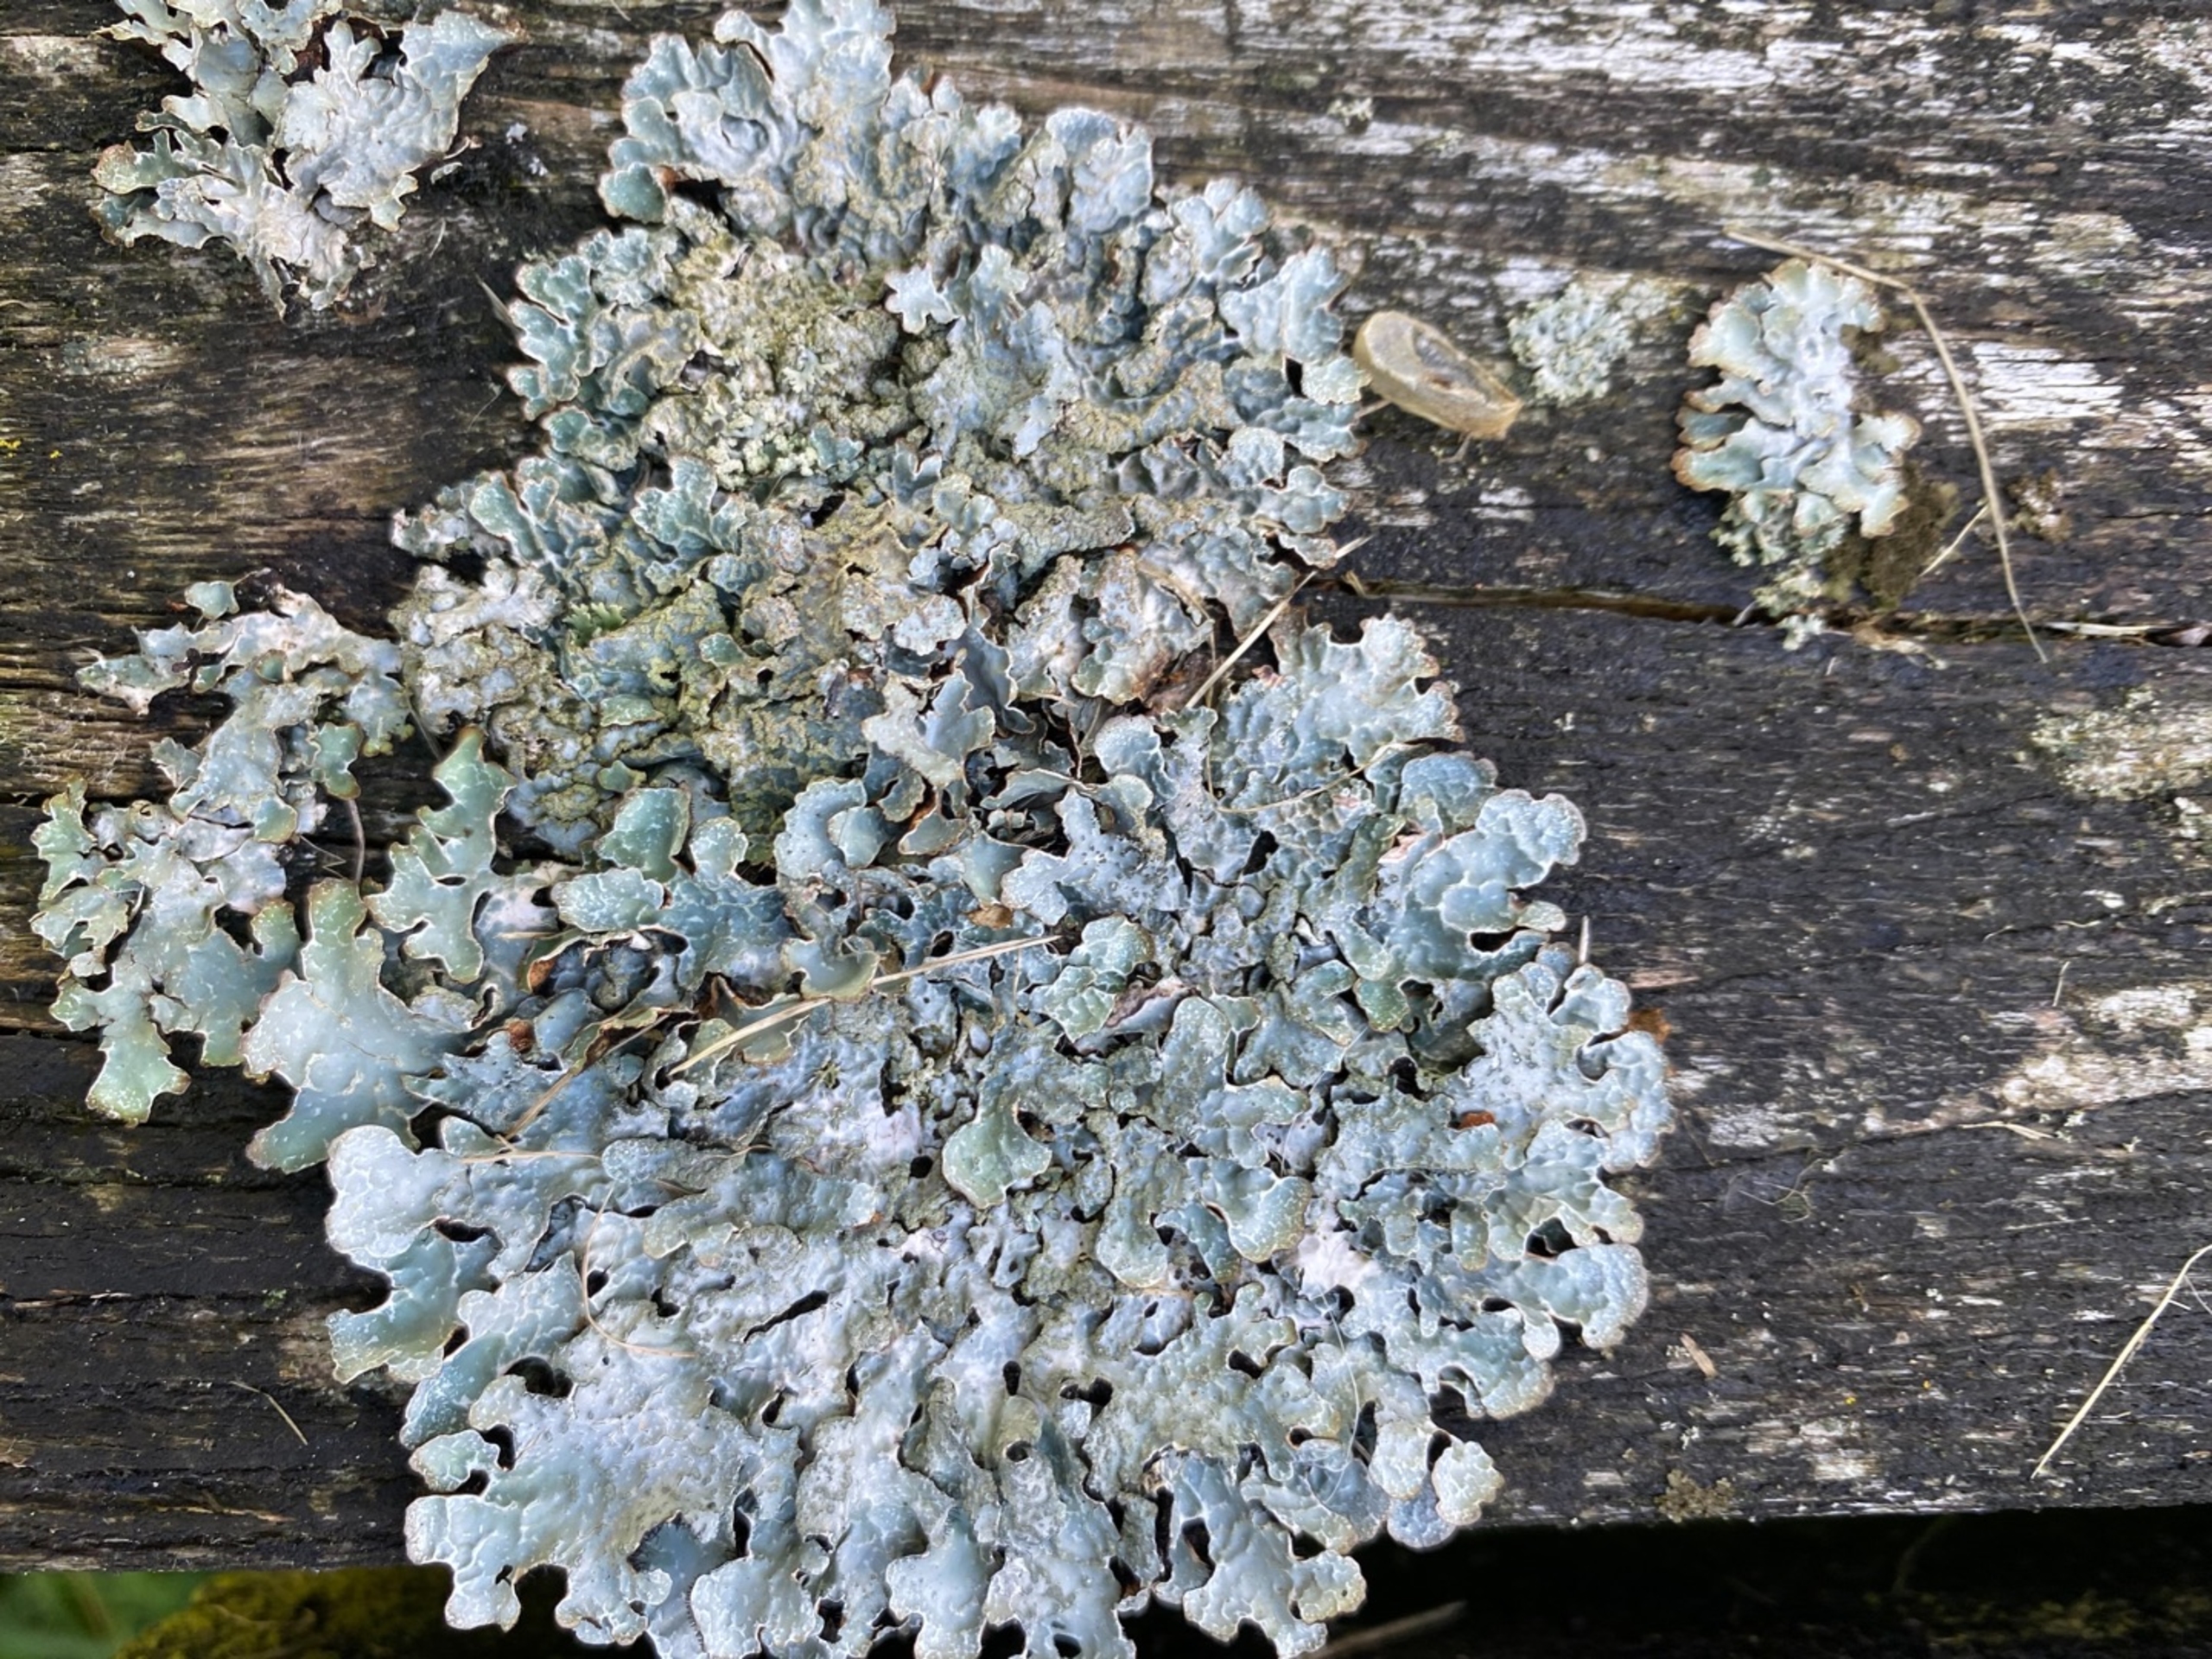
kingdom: Fungi
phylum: Ascomycota
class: Lecanoromycetes
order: Lecanorales
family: Parmeliaceae
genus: Parmelia
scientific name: Parmelia sulcata
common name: Rynket skållav
